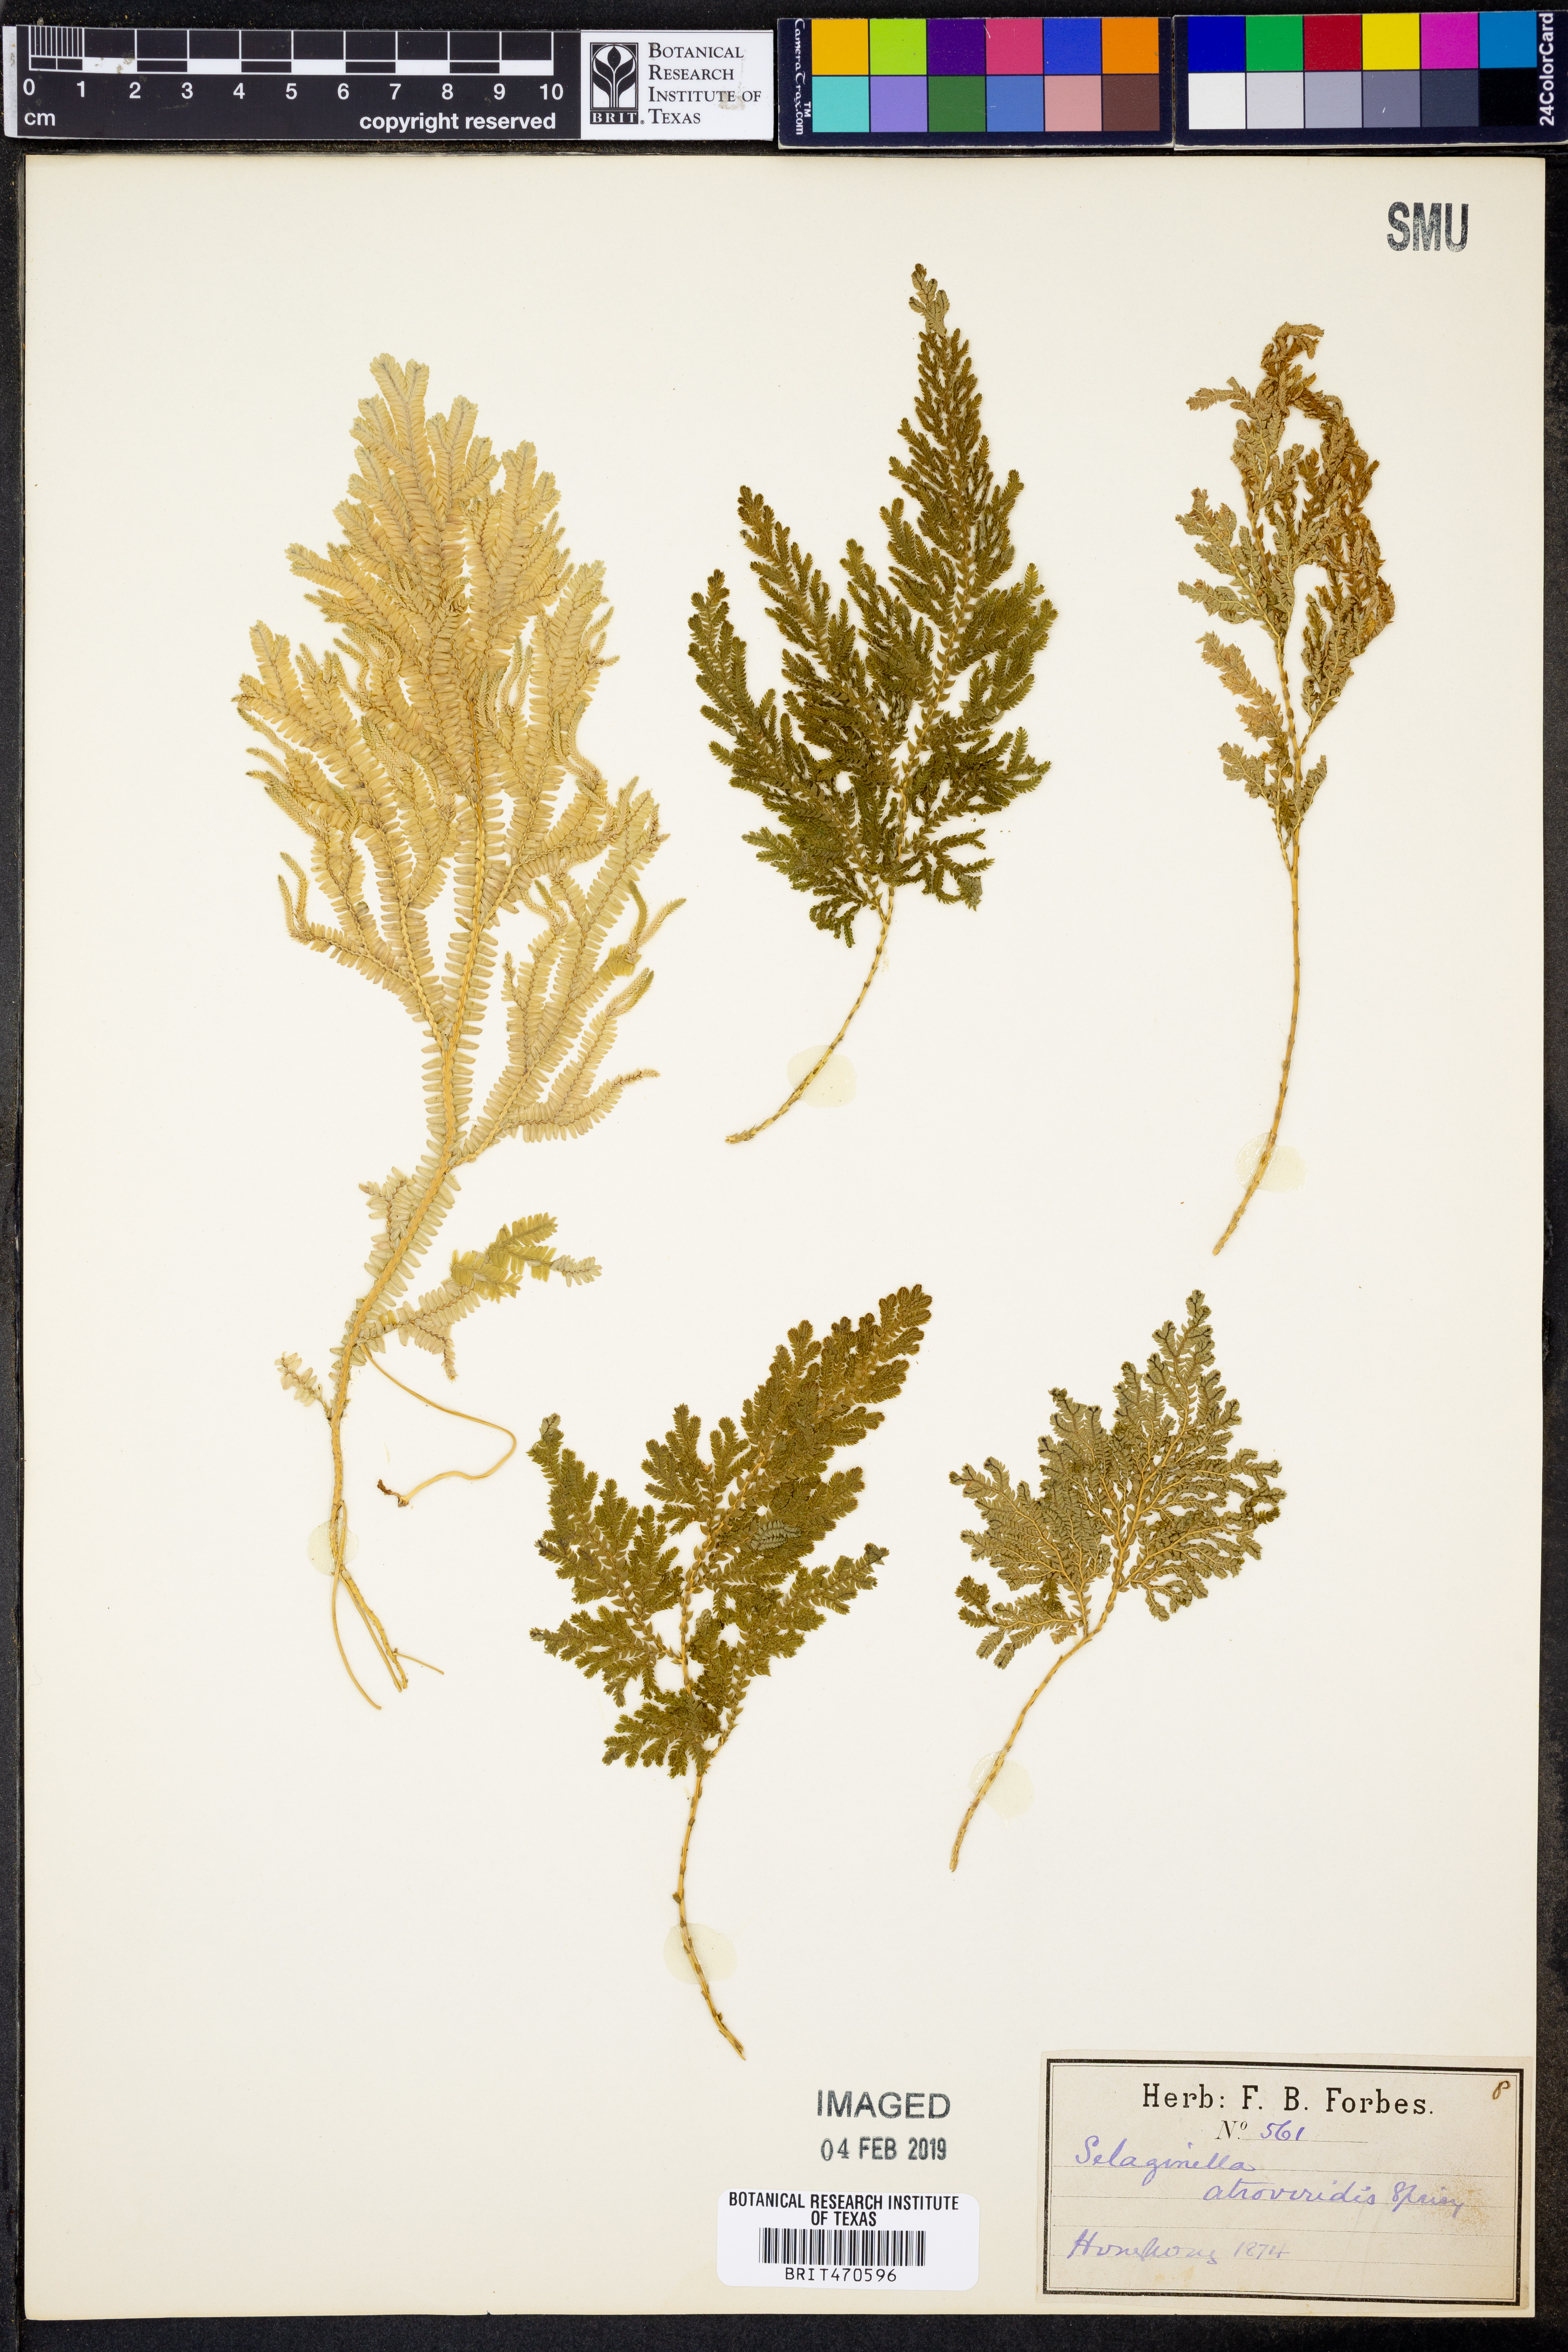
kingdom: Plantae
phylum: Tracheophyta
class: Lycopodiopsida
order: Selaginellales
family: Selaginellaceae
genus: Selaginella
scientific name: Selaginella intermedia
